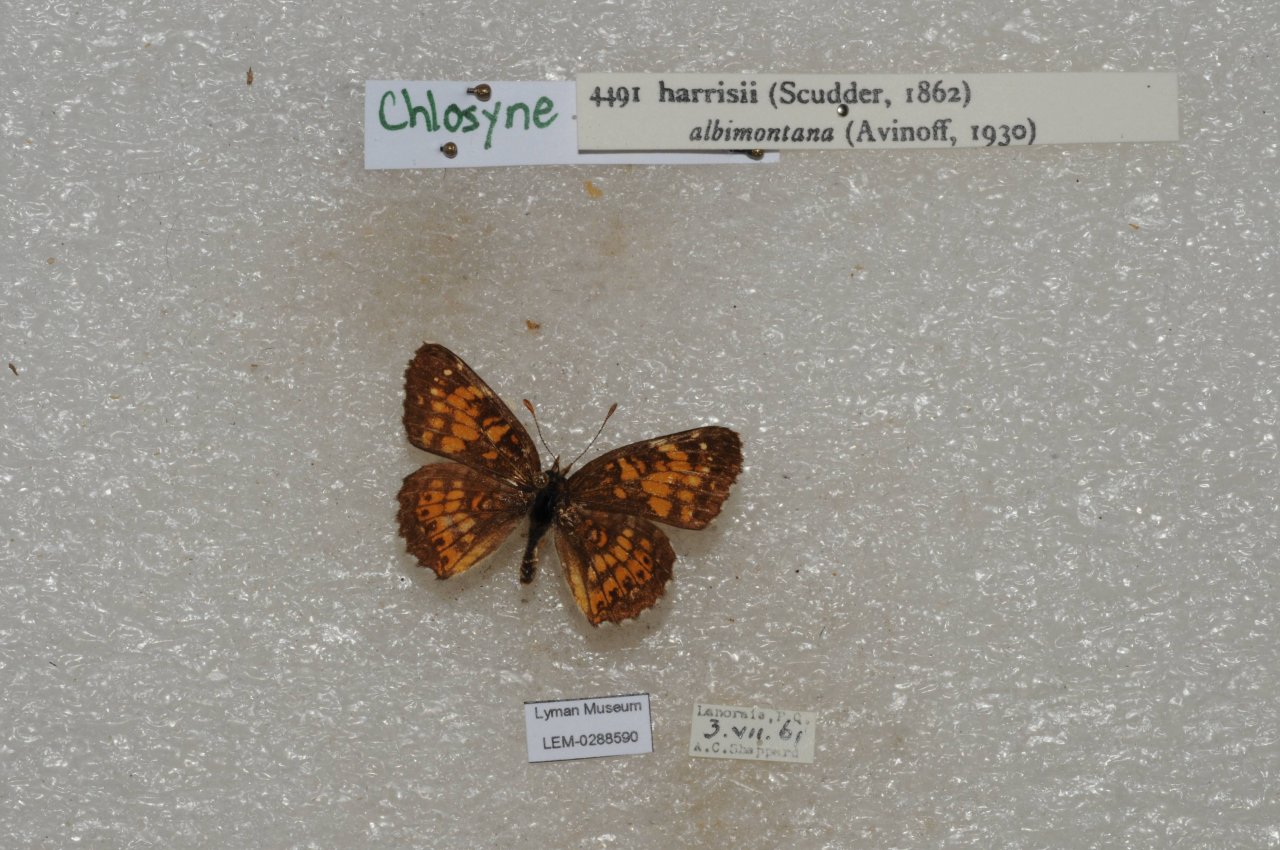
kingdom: Animalia
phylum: Arthropoda
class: Insecta
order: Lepidoptera
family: Nymphalidae
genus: Chlosyne
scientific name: Chlosyne harrisii
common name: Harris's Checkerspot
